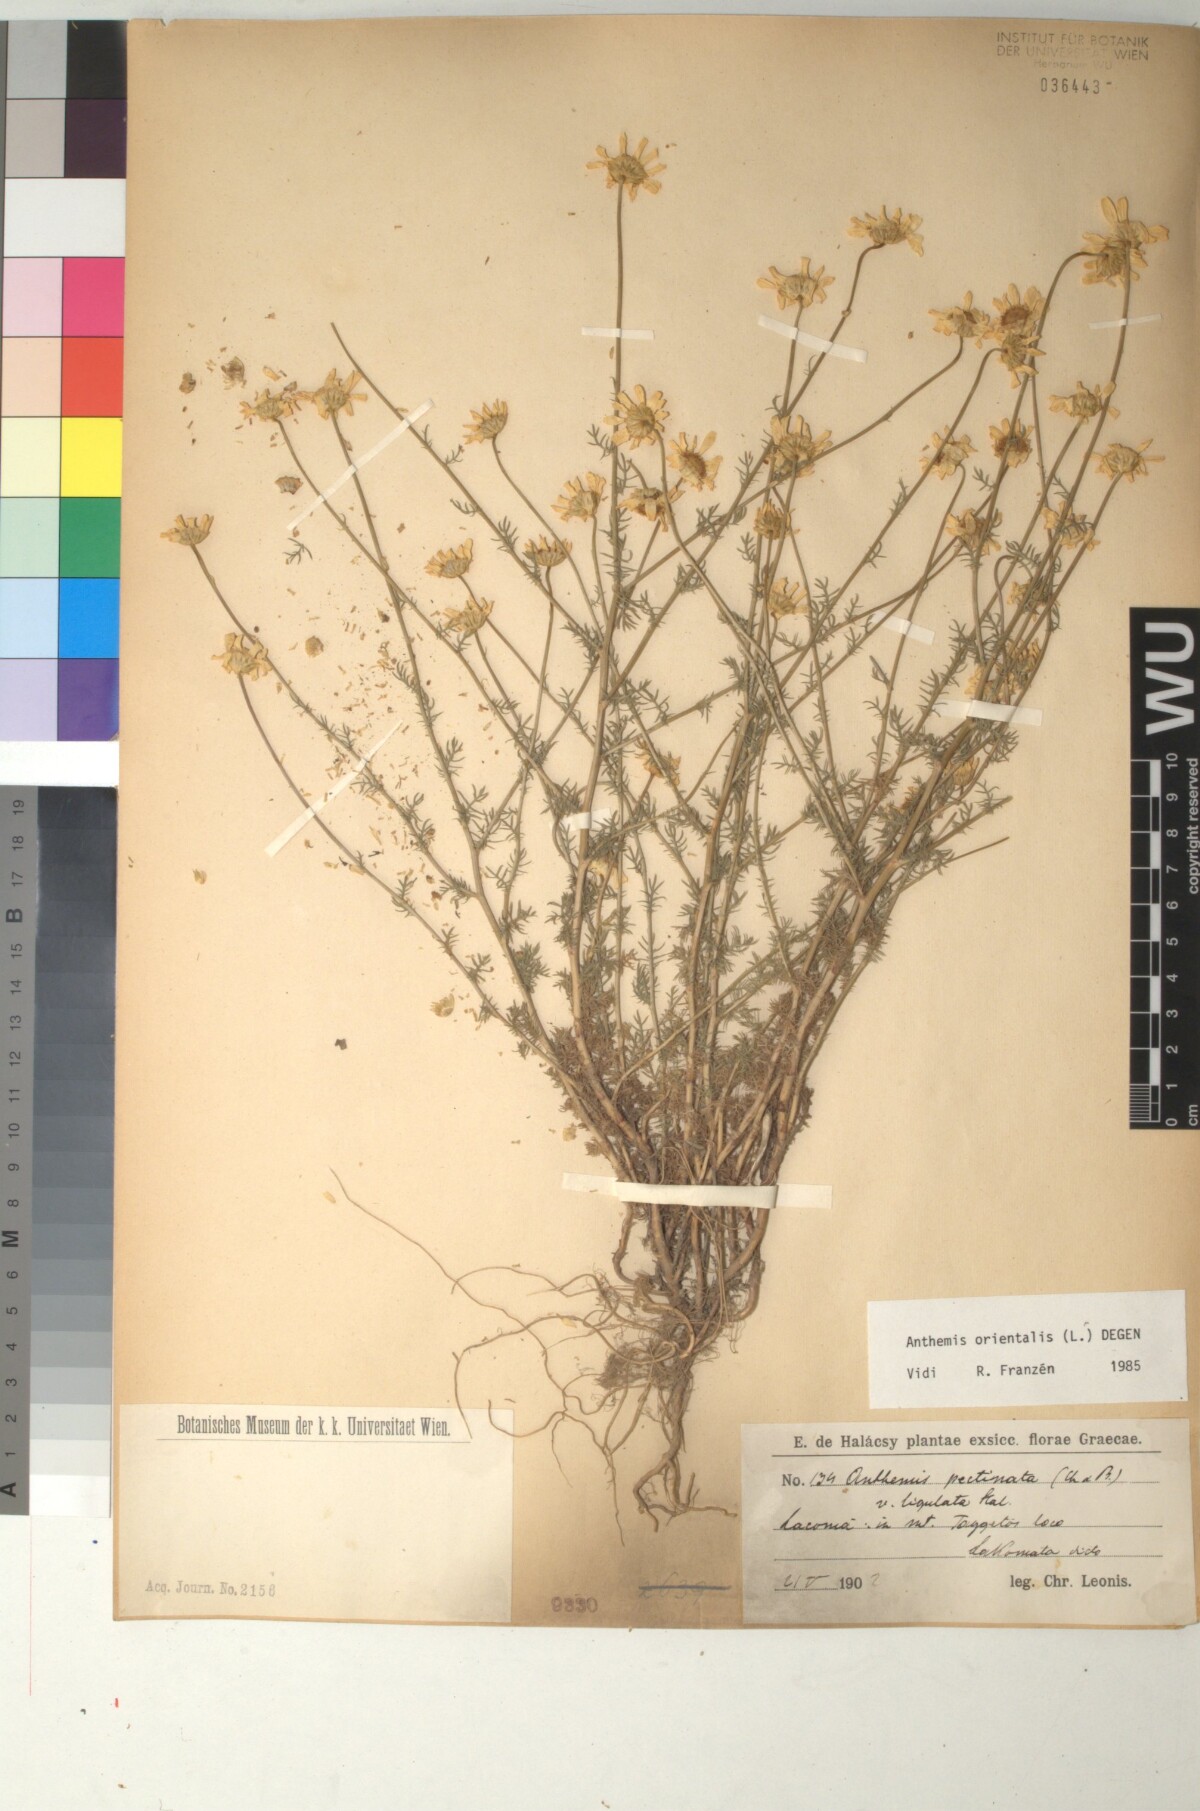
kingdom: Plantae
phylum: Tracheophyta
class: Magnoliopsida
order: Asterales
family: Asteraceae
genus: Anthemis
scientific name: Anthemis orientalis
